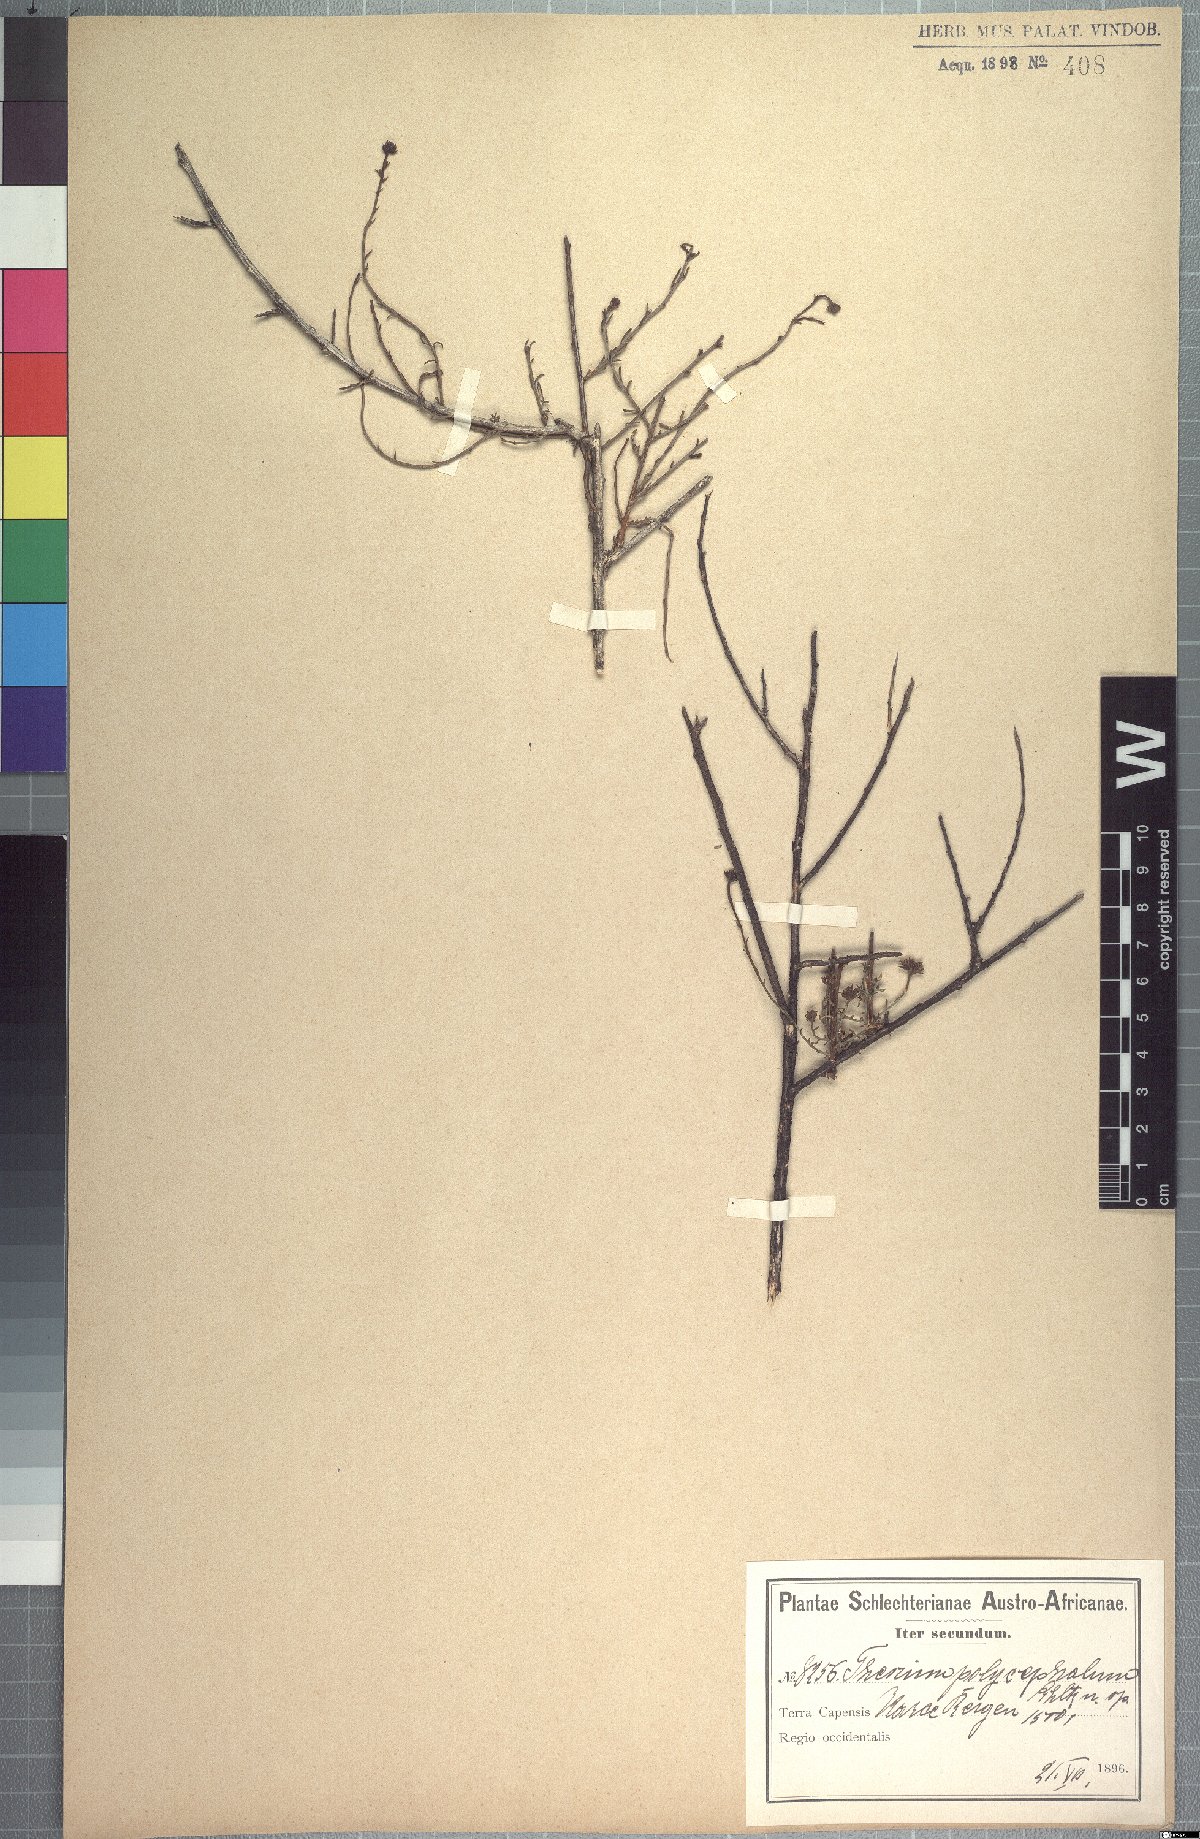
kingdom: Plantae
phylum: Tracheophyta
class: Magnoliopsida
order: Santalales
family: Thesiaceae
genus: Thesium
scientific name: Thesium polycephalum
